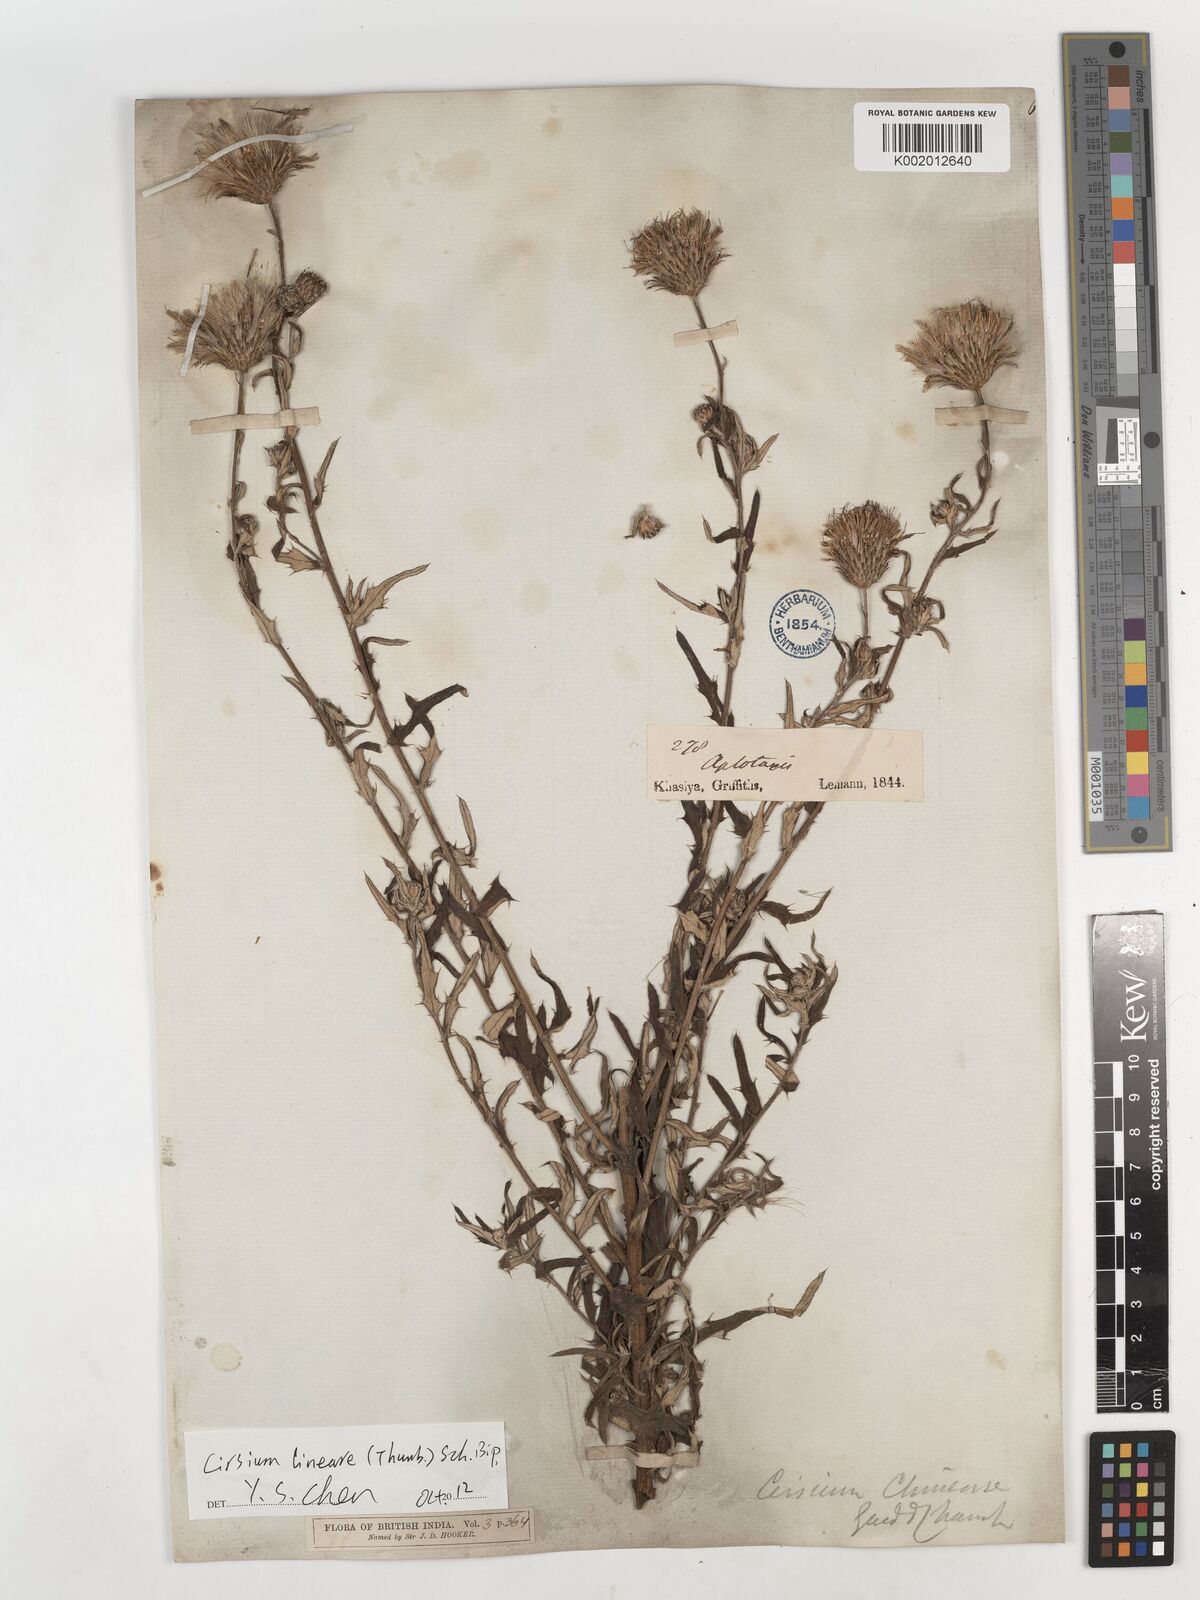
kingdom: Plantae
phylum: Tracheophyta
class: Magnoliopsida
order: Asterales
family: Asteraceae
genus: Cirsium
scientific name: Cirsium chinense
